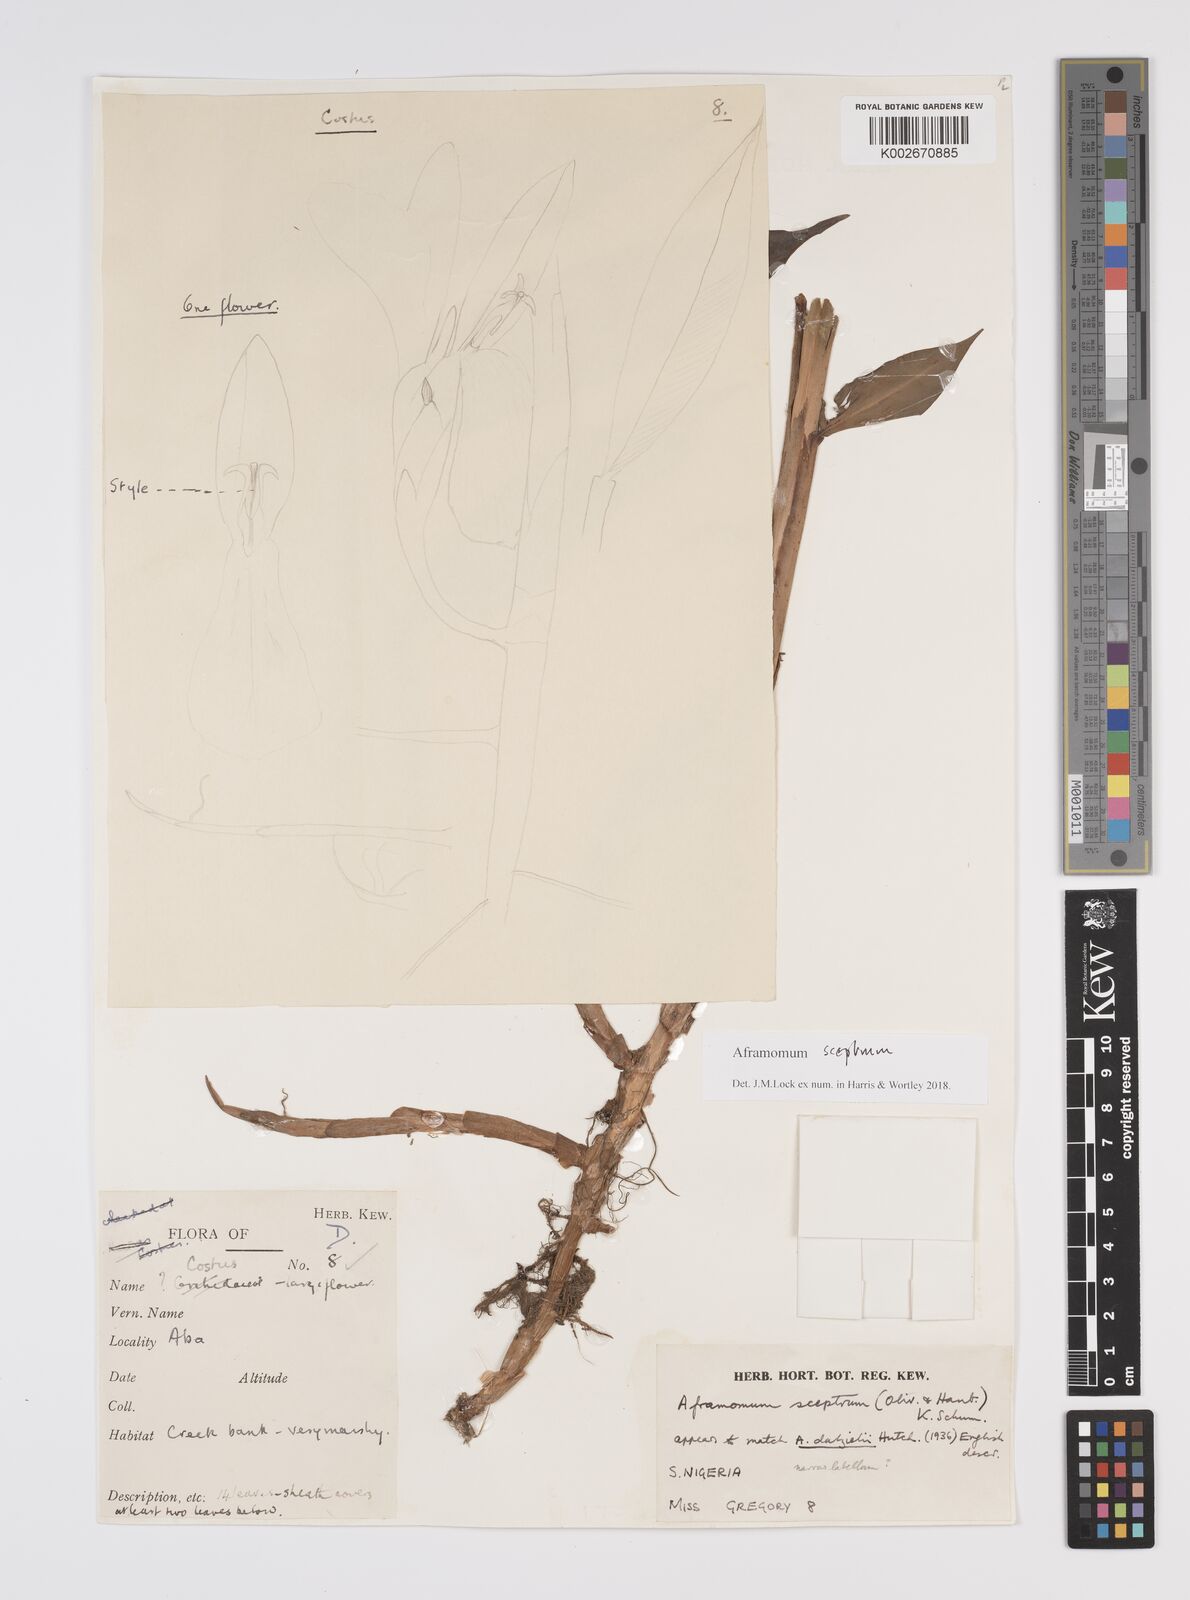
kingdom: Plantae
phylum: Tracheophyta
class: Liliopsida
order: Zingiberales
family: Zingiberaceae
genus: Aframomum
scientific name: Aframomum cereum
